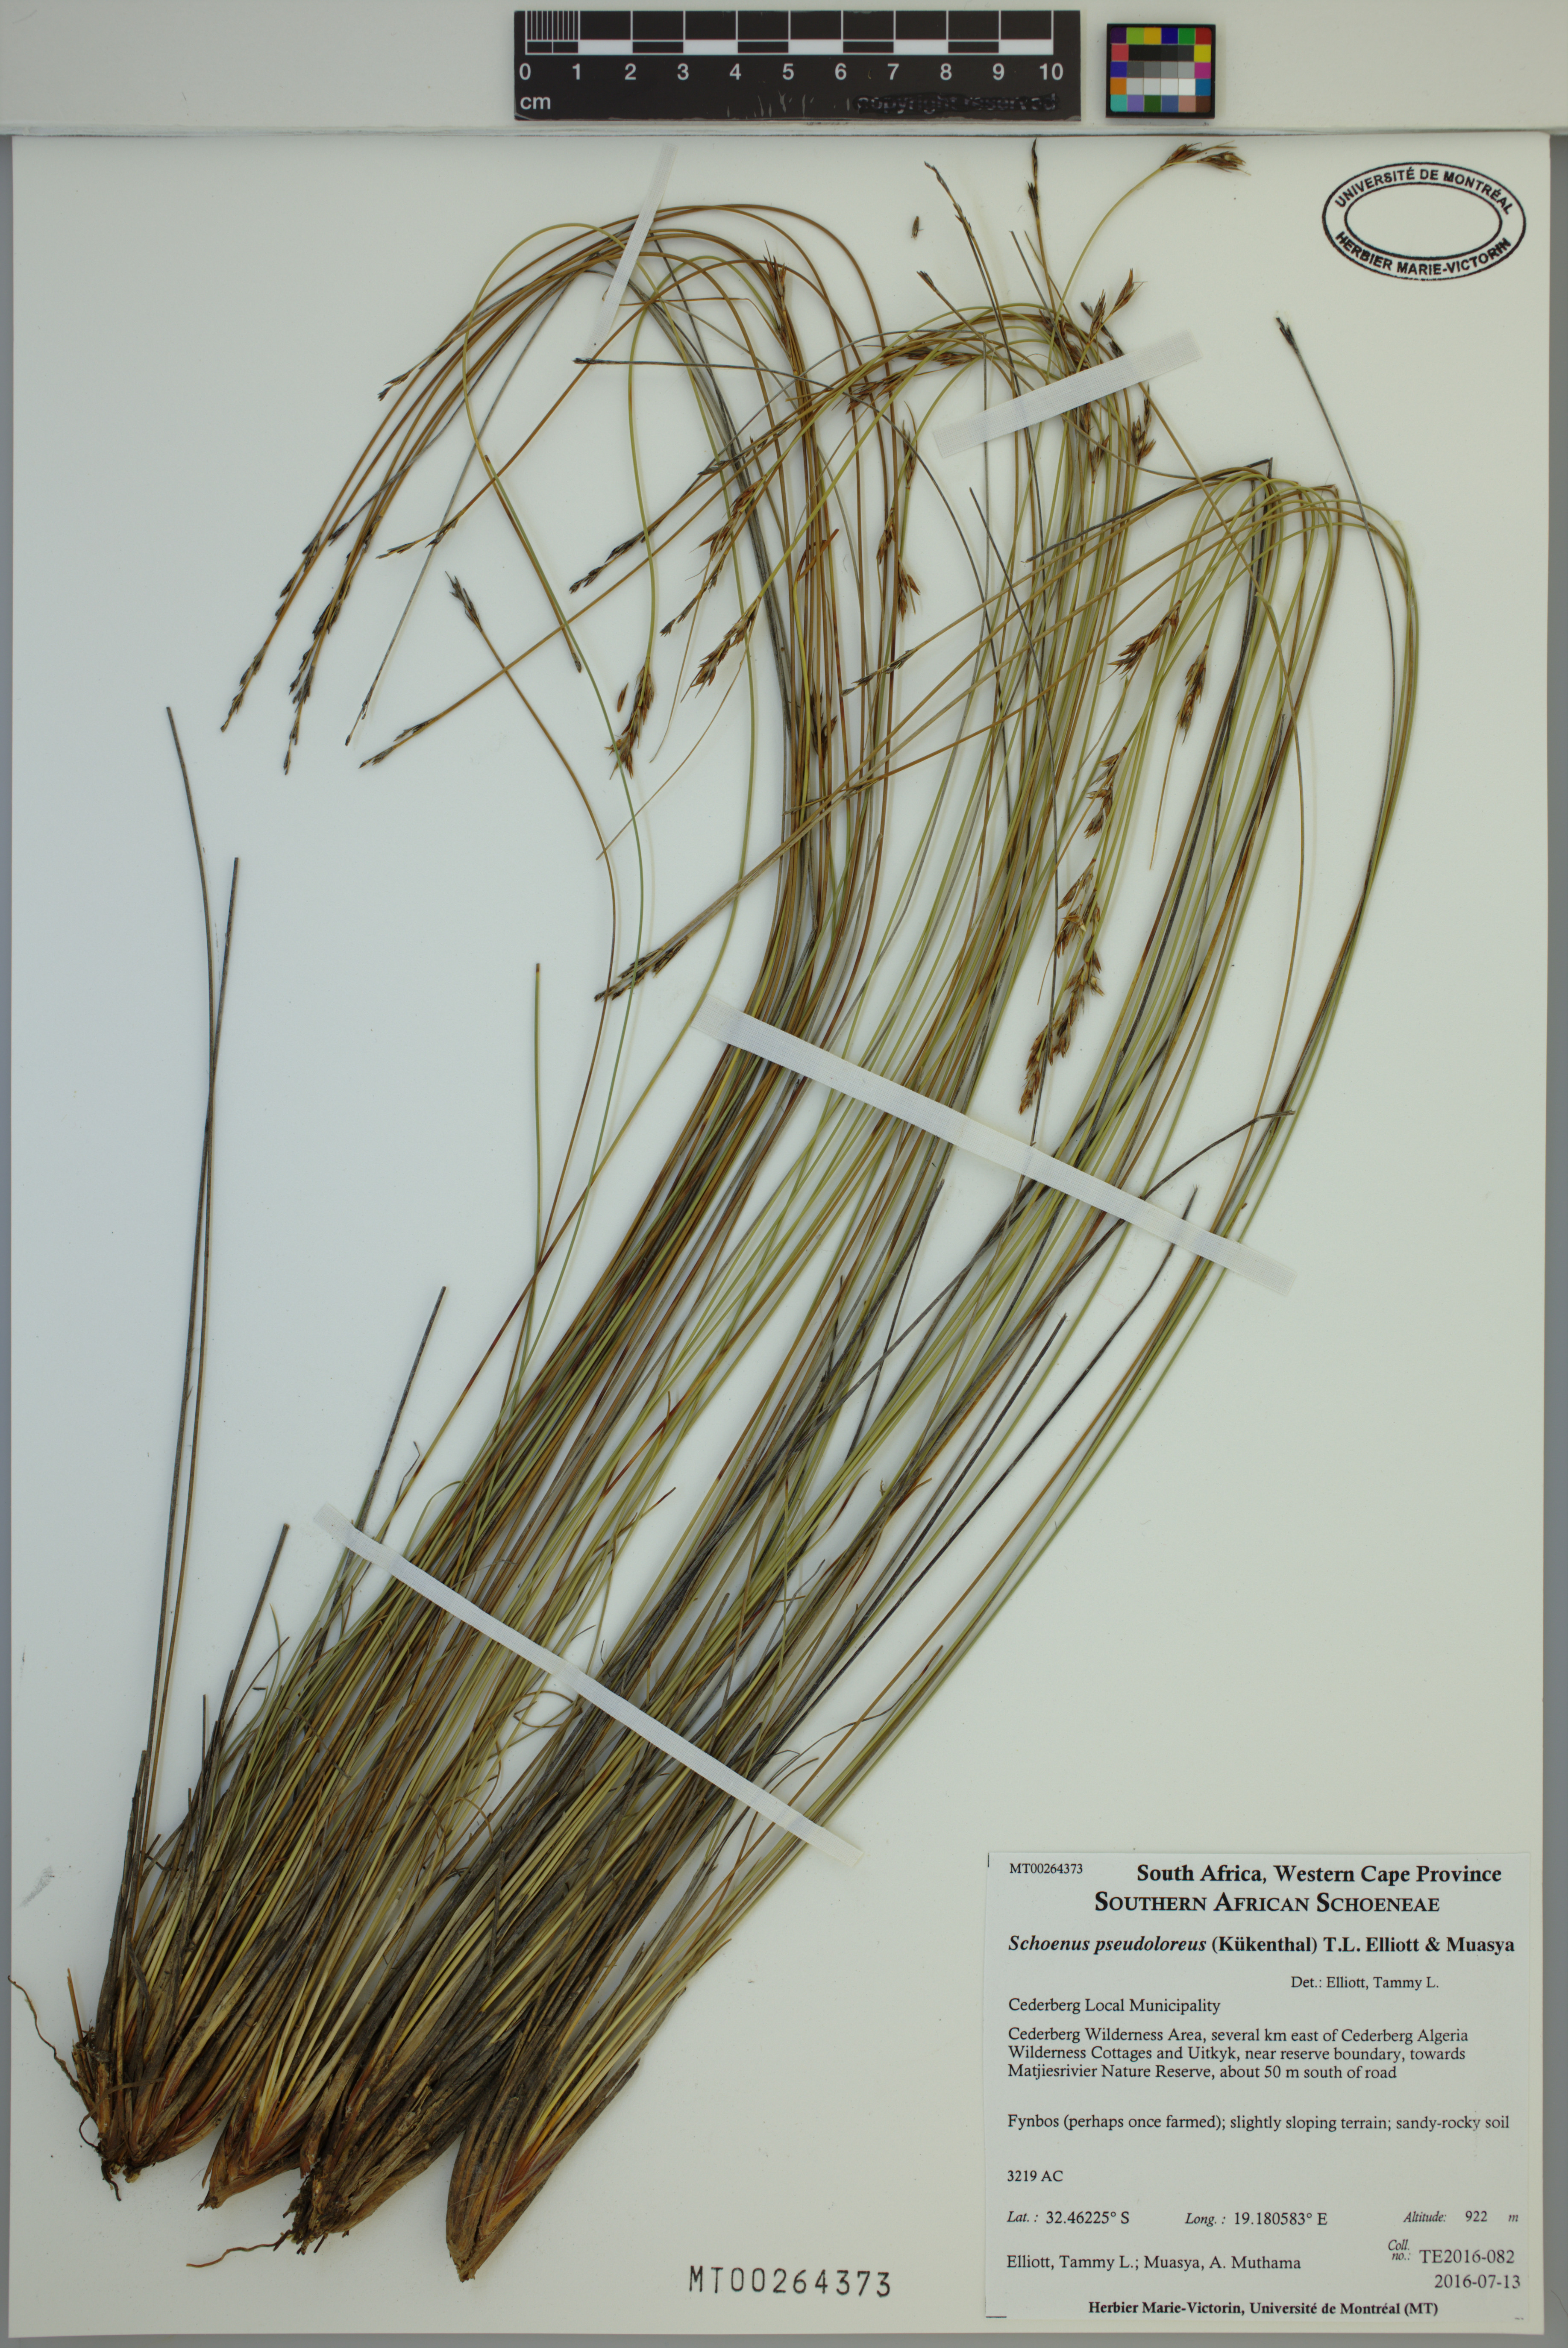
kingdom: Plantae
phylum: Tracheophyta
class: Liliopsida
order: Poales
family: Cyperaceae
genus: Schoenus
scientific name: Schoenus pseudoloreus
